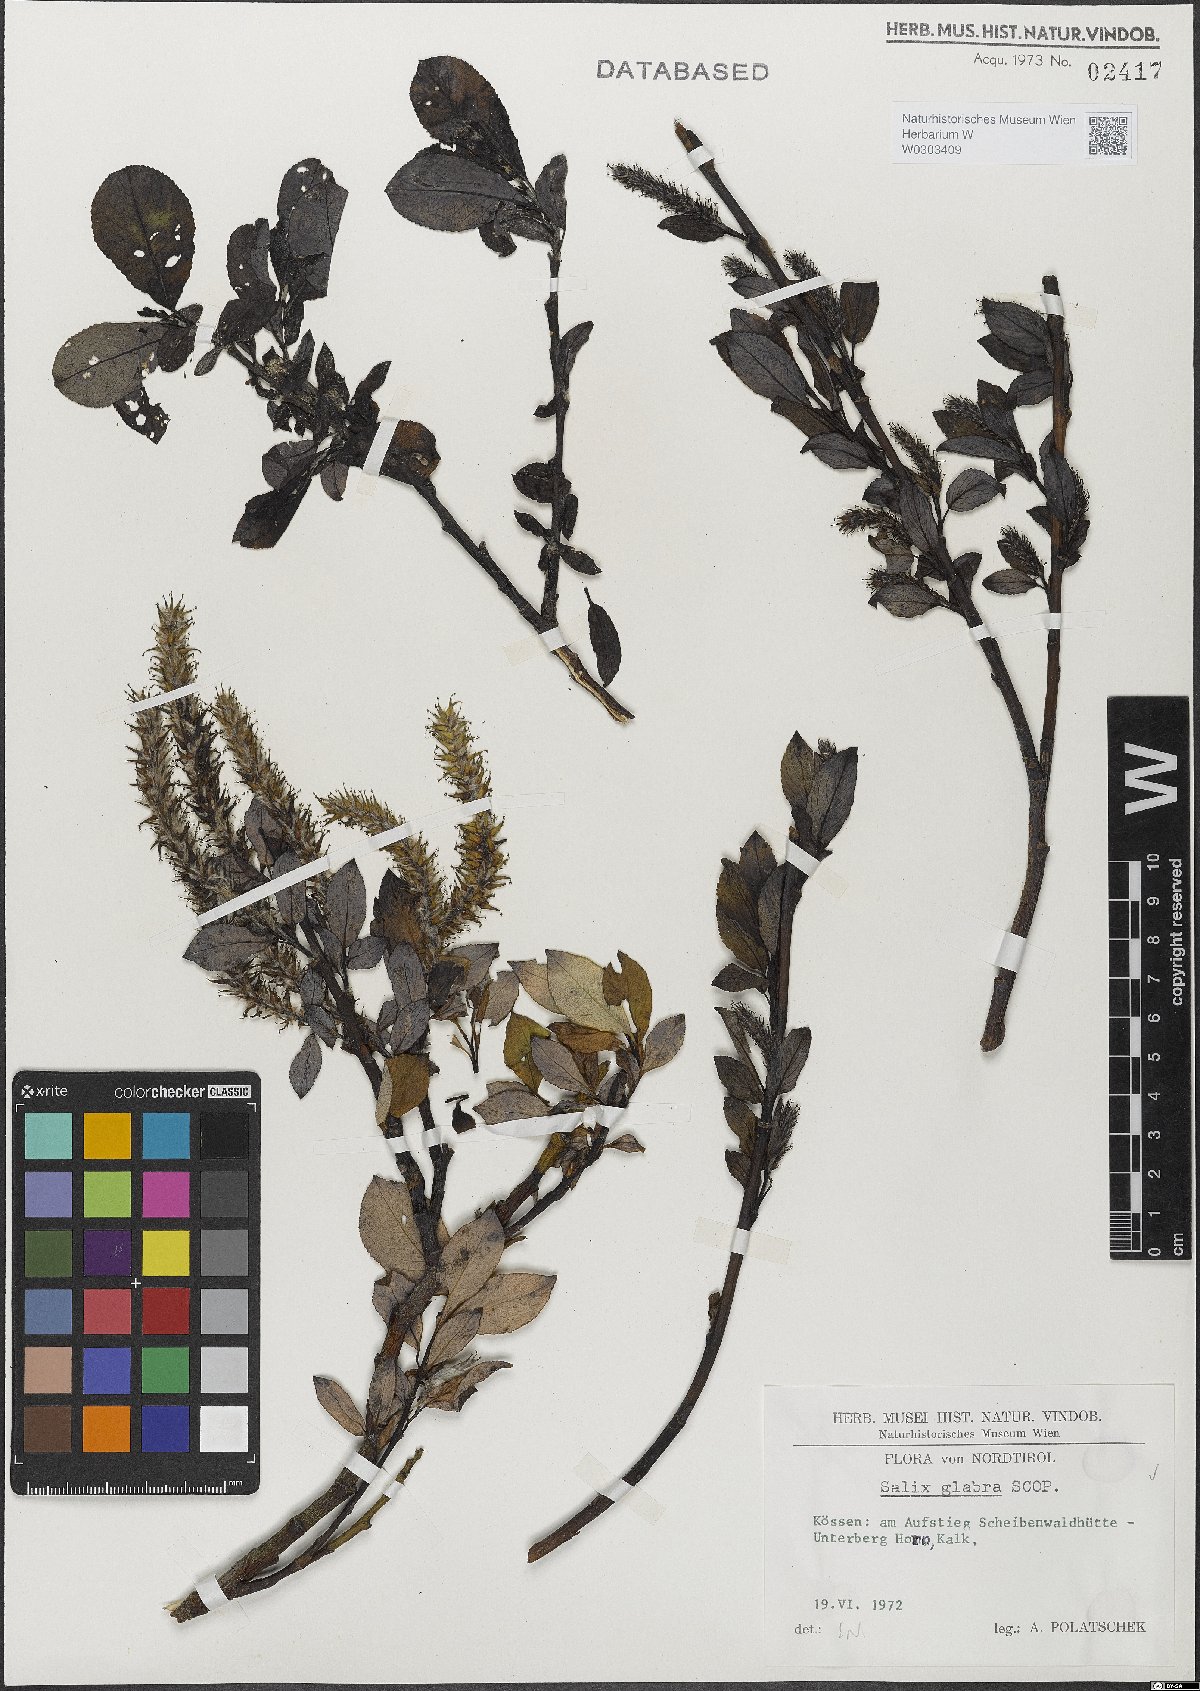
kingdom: Plantae
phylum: Tracheophyta
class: Magnoliopsida
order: Malpighiales
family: Salicaceae
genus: Salix
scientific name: Salix glabra
